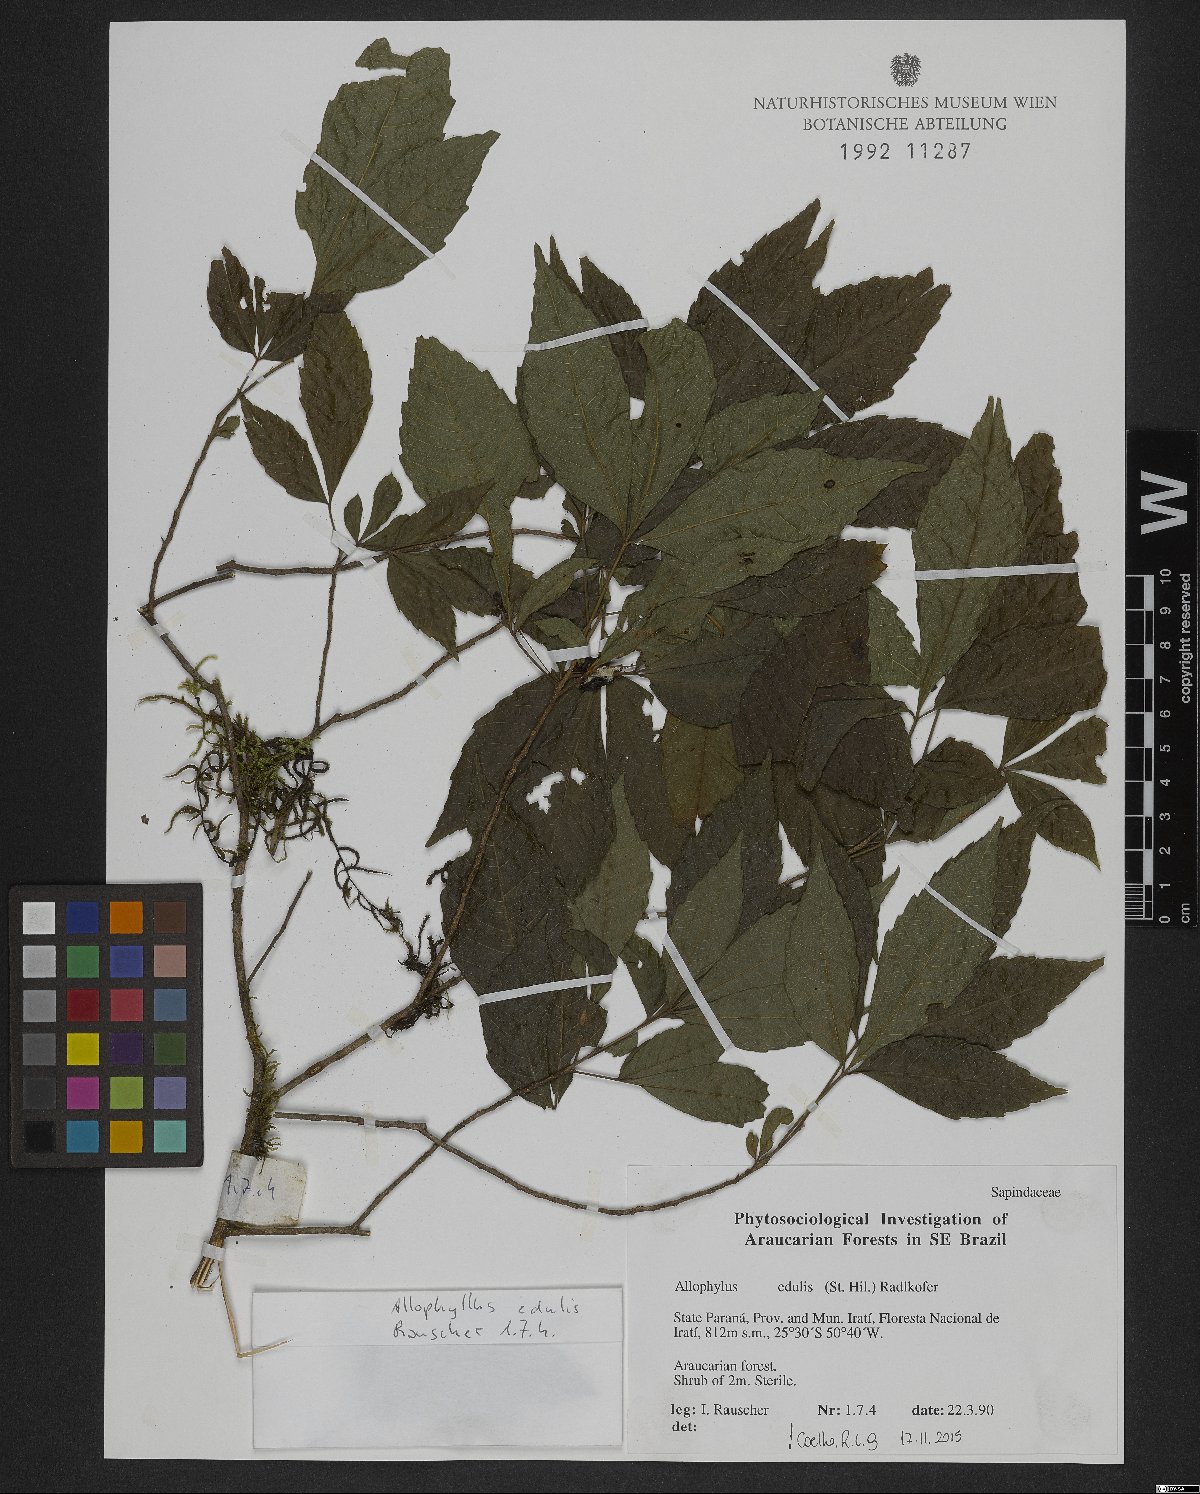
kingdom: Plantae
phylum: Tracheophyta
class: Magnoliopsida
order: Sapindales
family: Sapindaceae
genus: Allophylus
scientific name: Allophylus edulis
